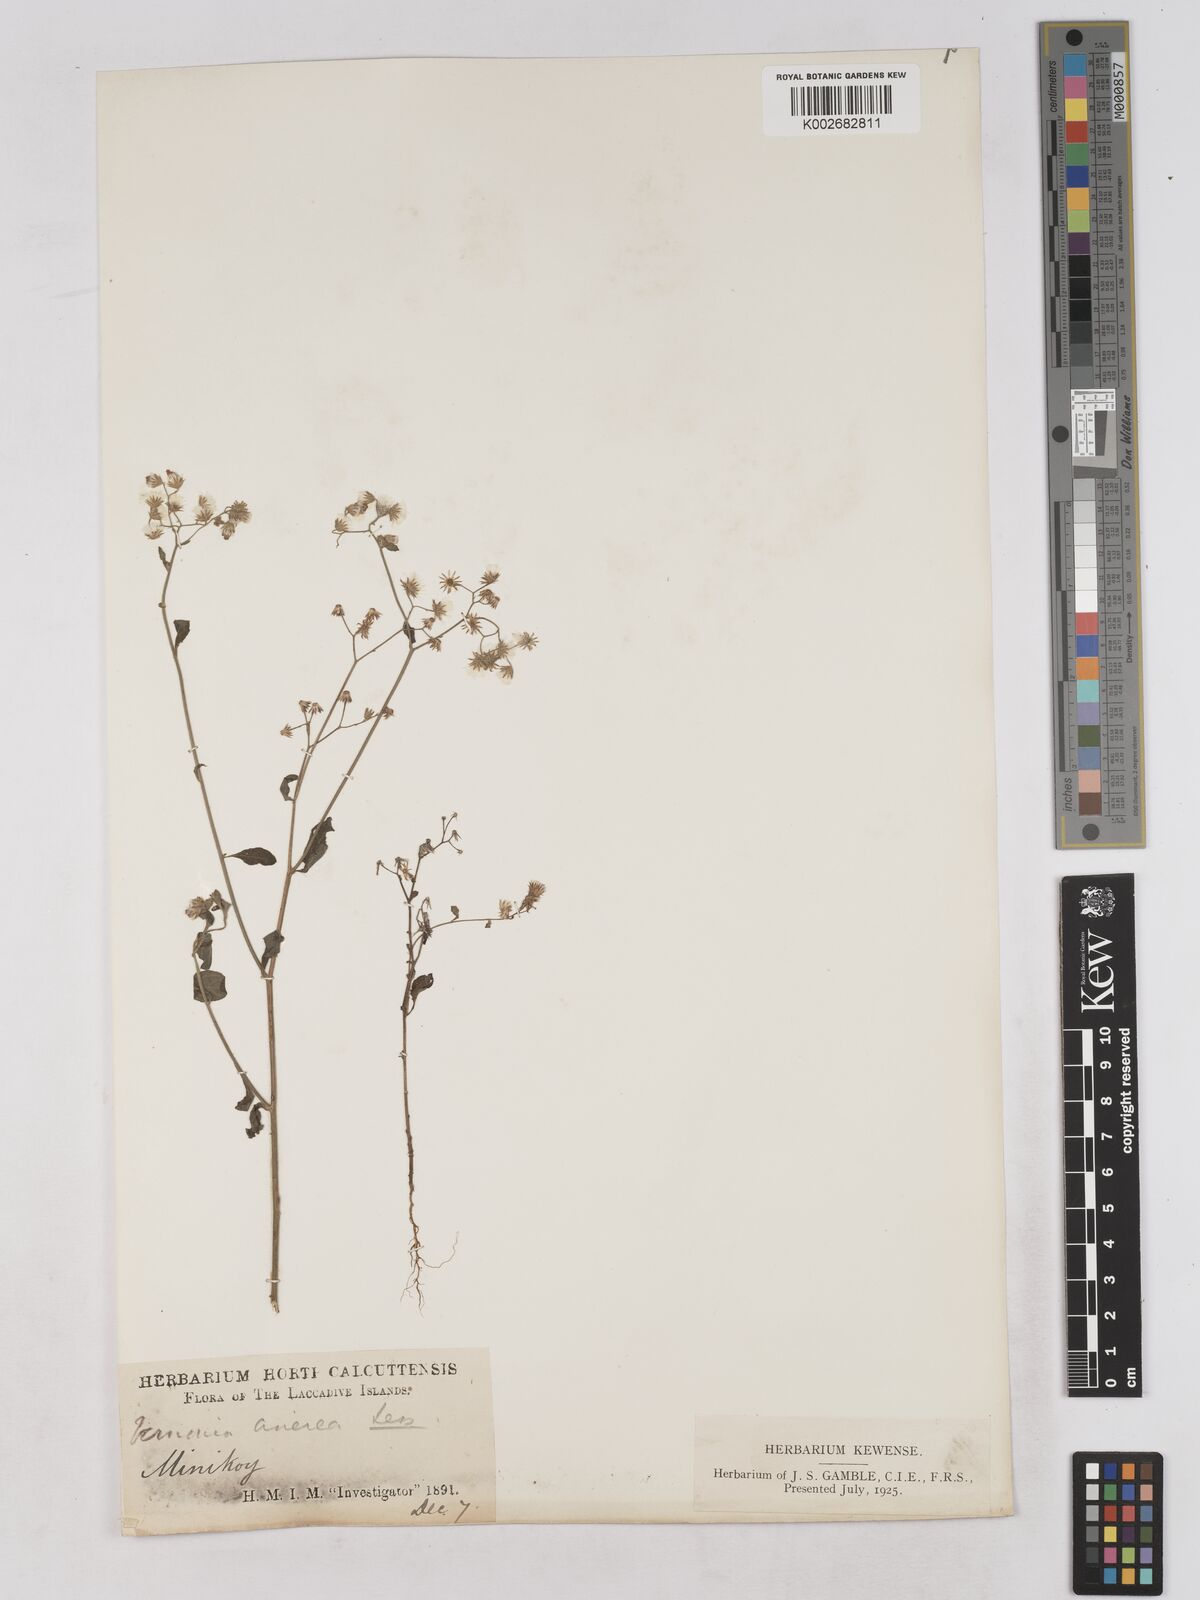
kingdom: Plantae
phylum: Tracheophyta
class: Magnoliopsida
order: Asterales
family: Asteraceae
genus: Cyanthillium
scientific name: Cyanthillium cinereum
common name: Little ironweed
